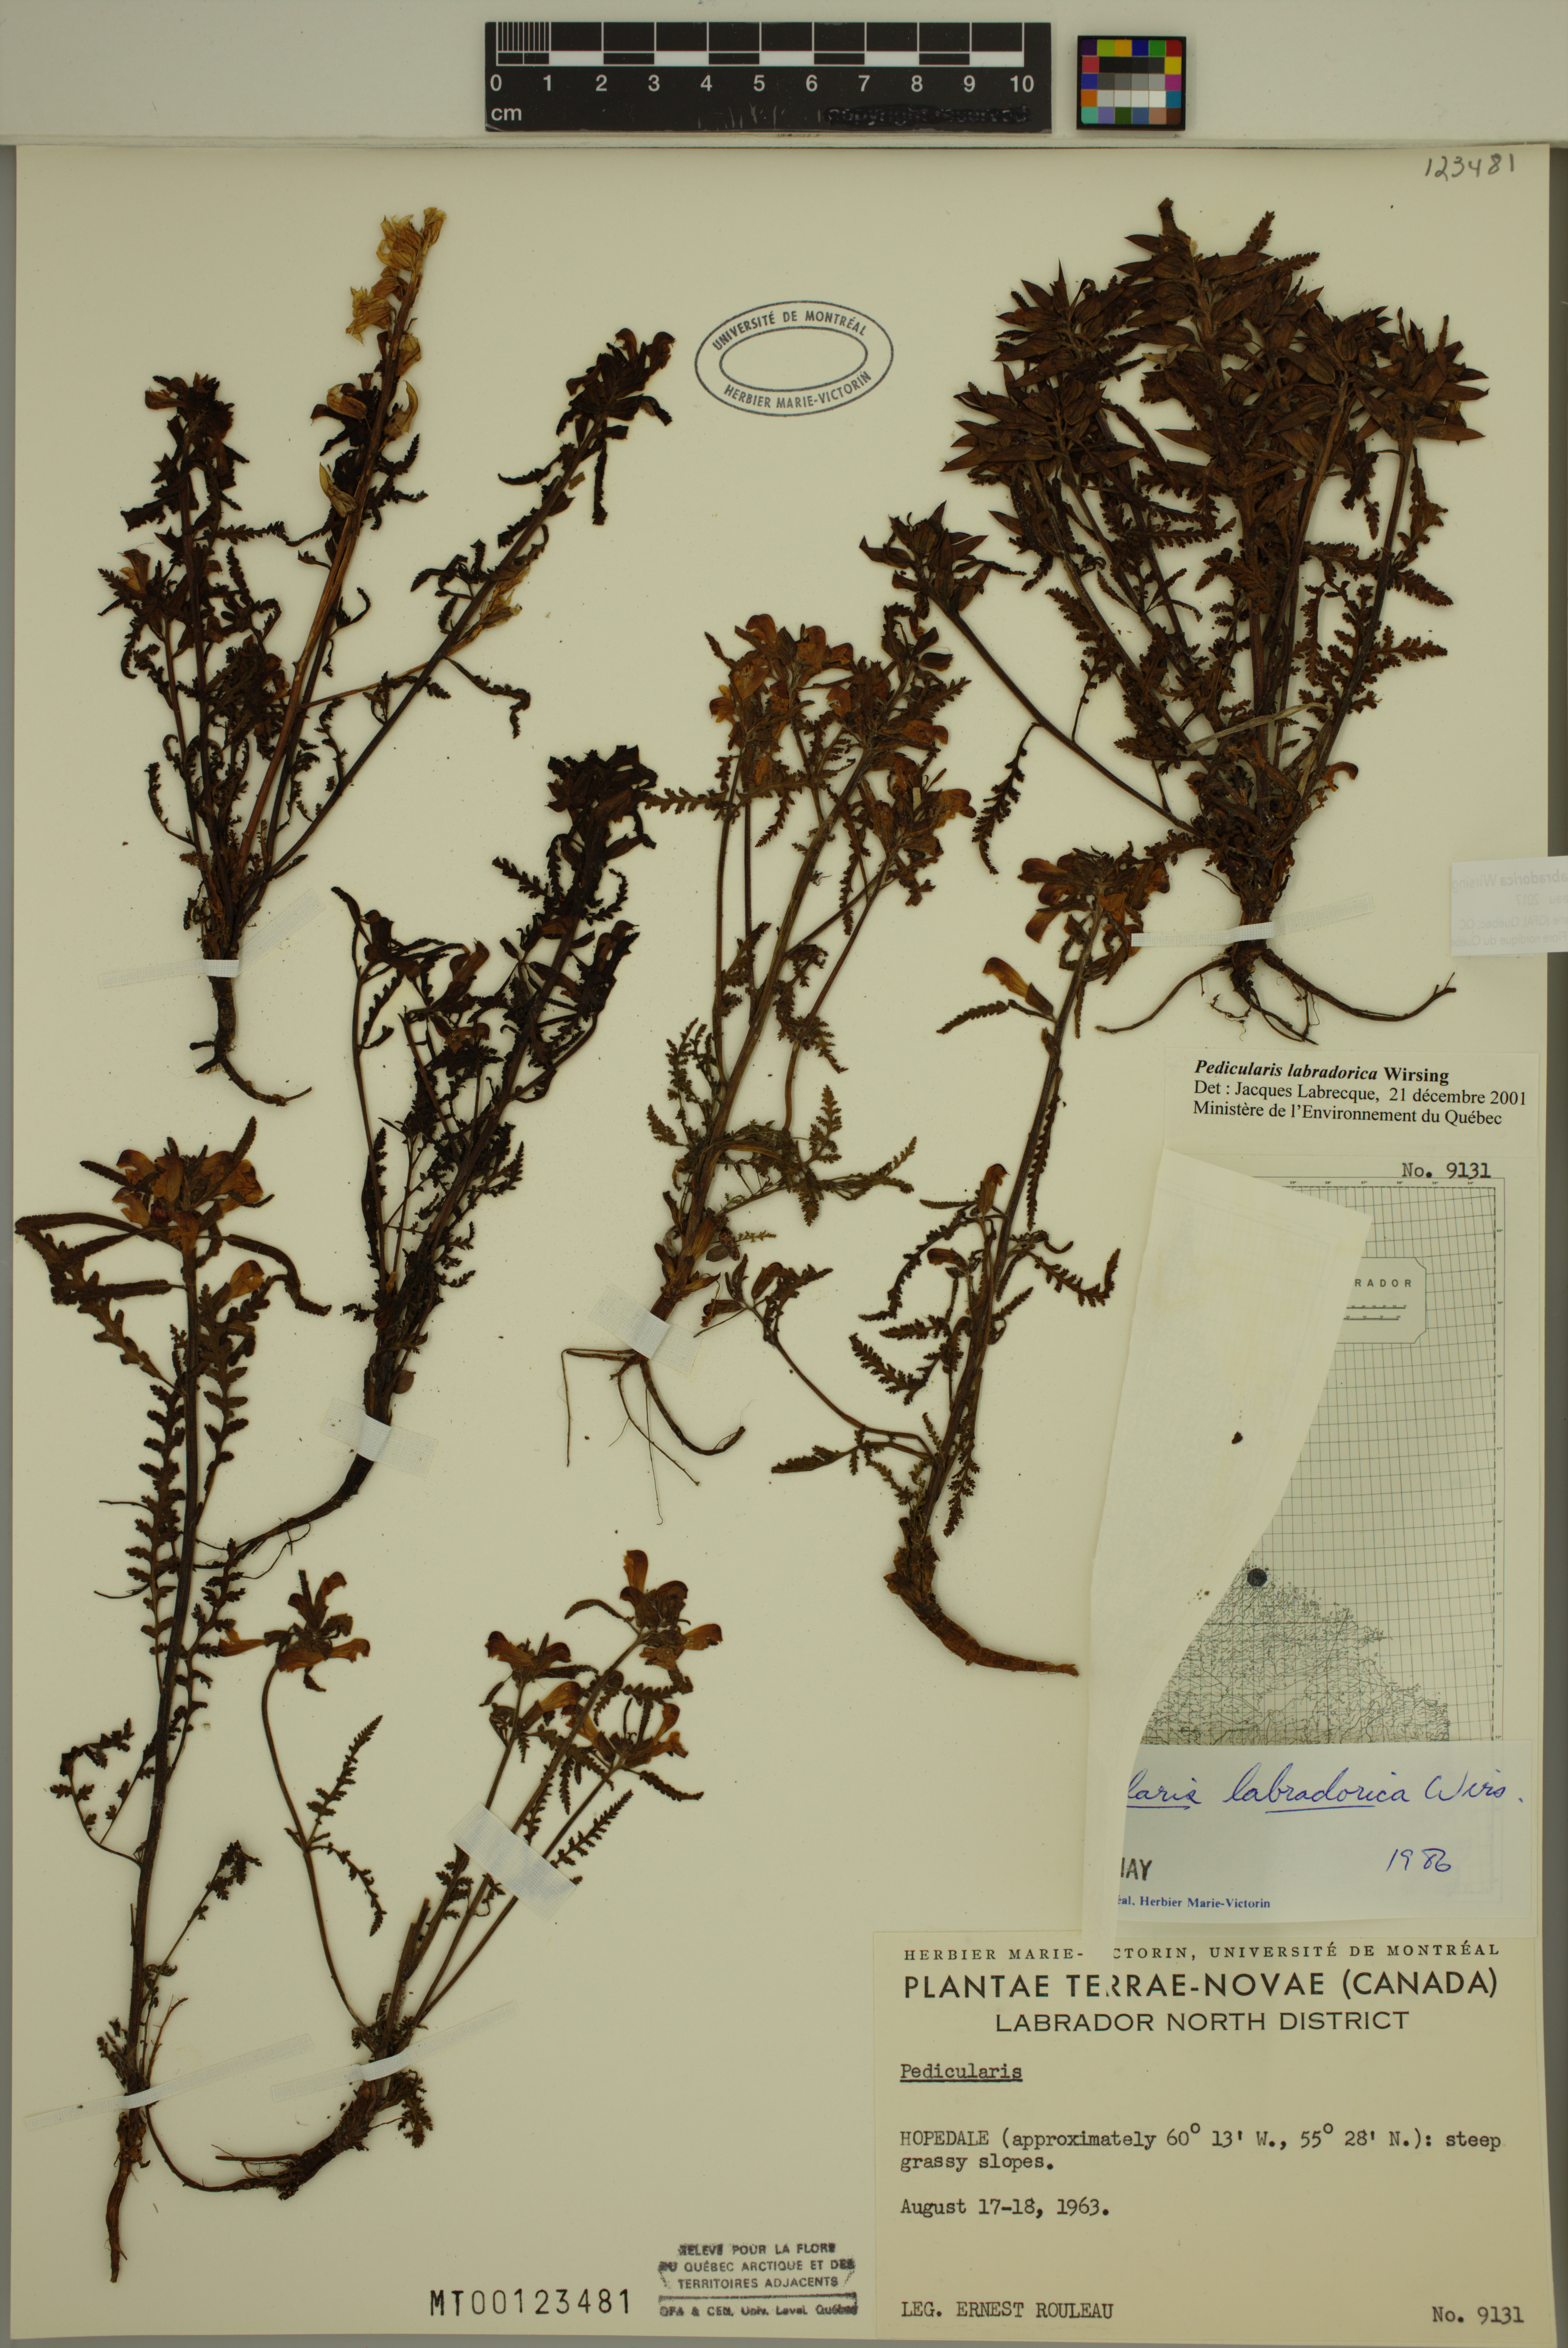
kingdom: Plantae
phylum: Tracheophyta
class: Magnoliopsida
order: Lamiales
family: Orobanchaceae
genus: Pedicularis
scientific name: Pedicularis labradorica
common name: Labrador lousewort
